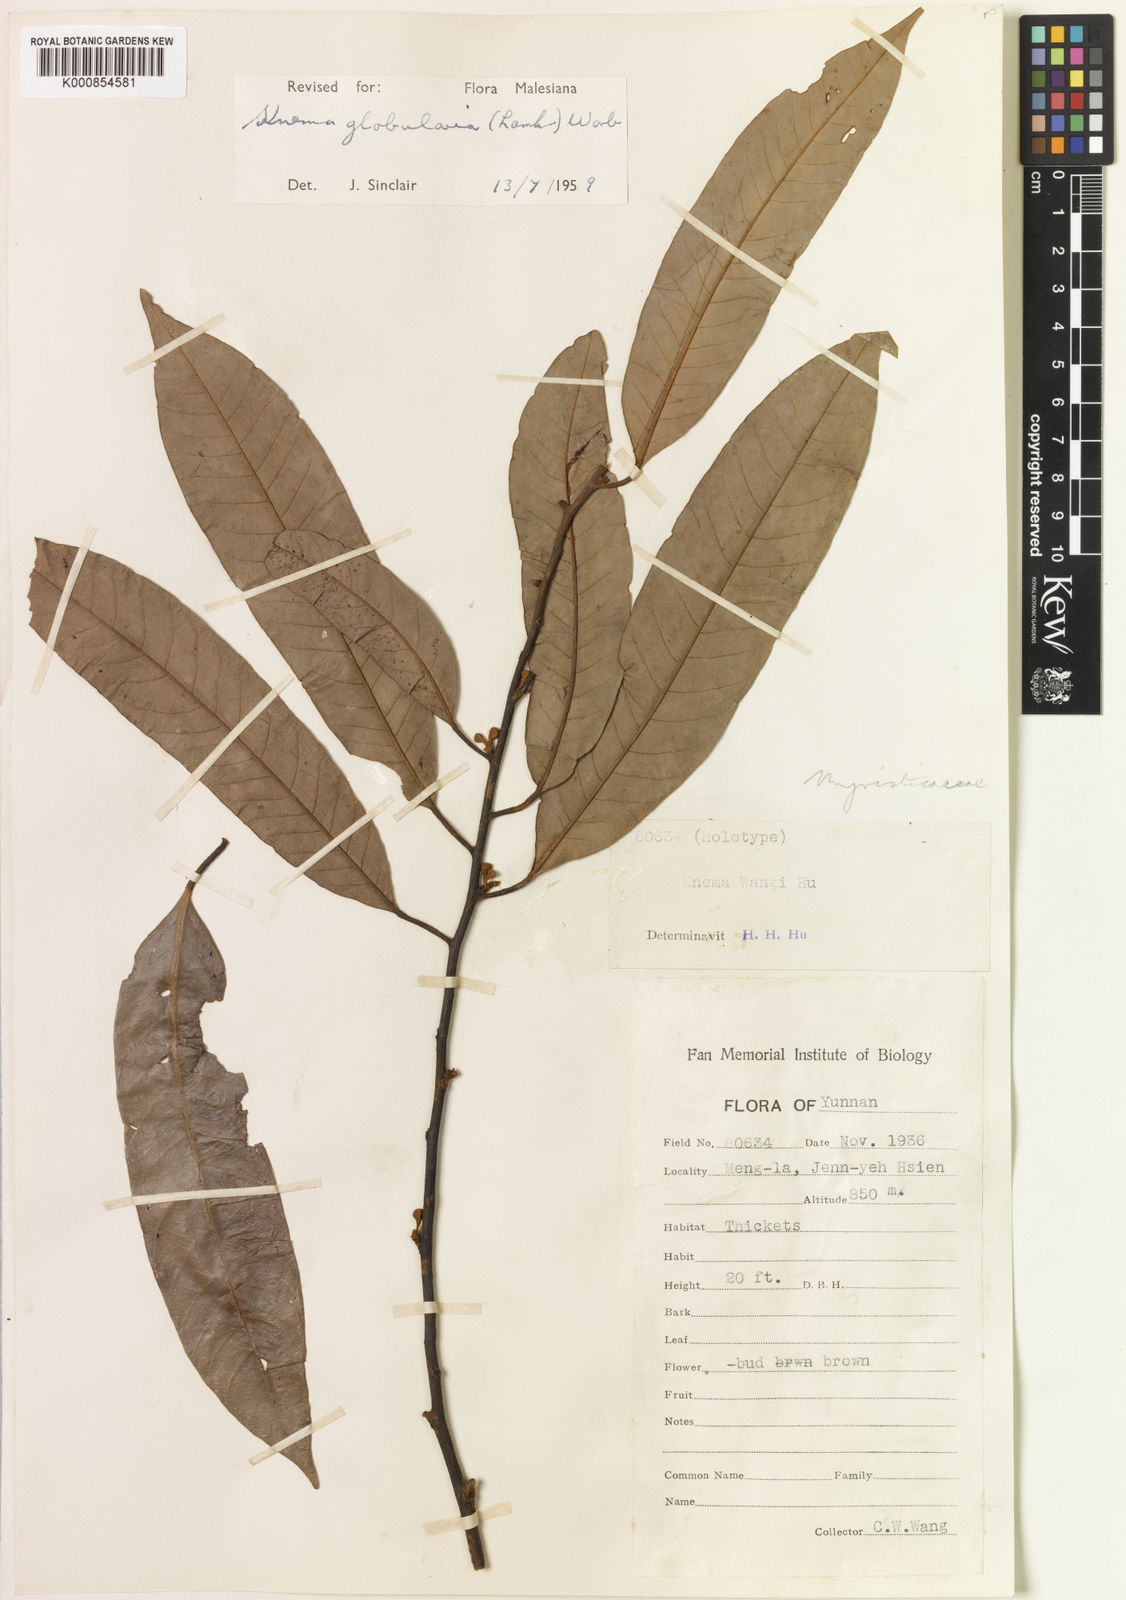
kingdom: Plantae
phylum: Tracheophyta
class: Magnoliopsida
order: Magnoliales
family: Myristicaceae
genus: Knema
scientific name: Knema globularia
